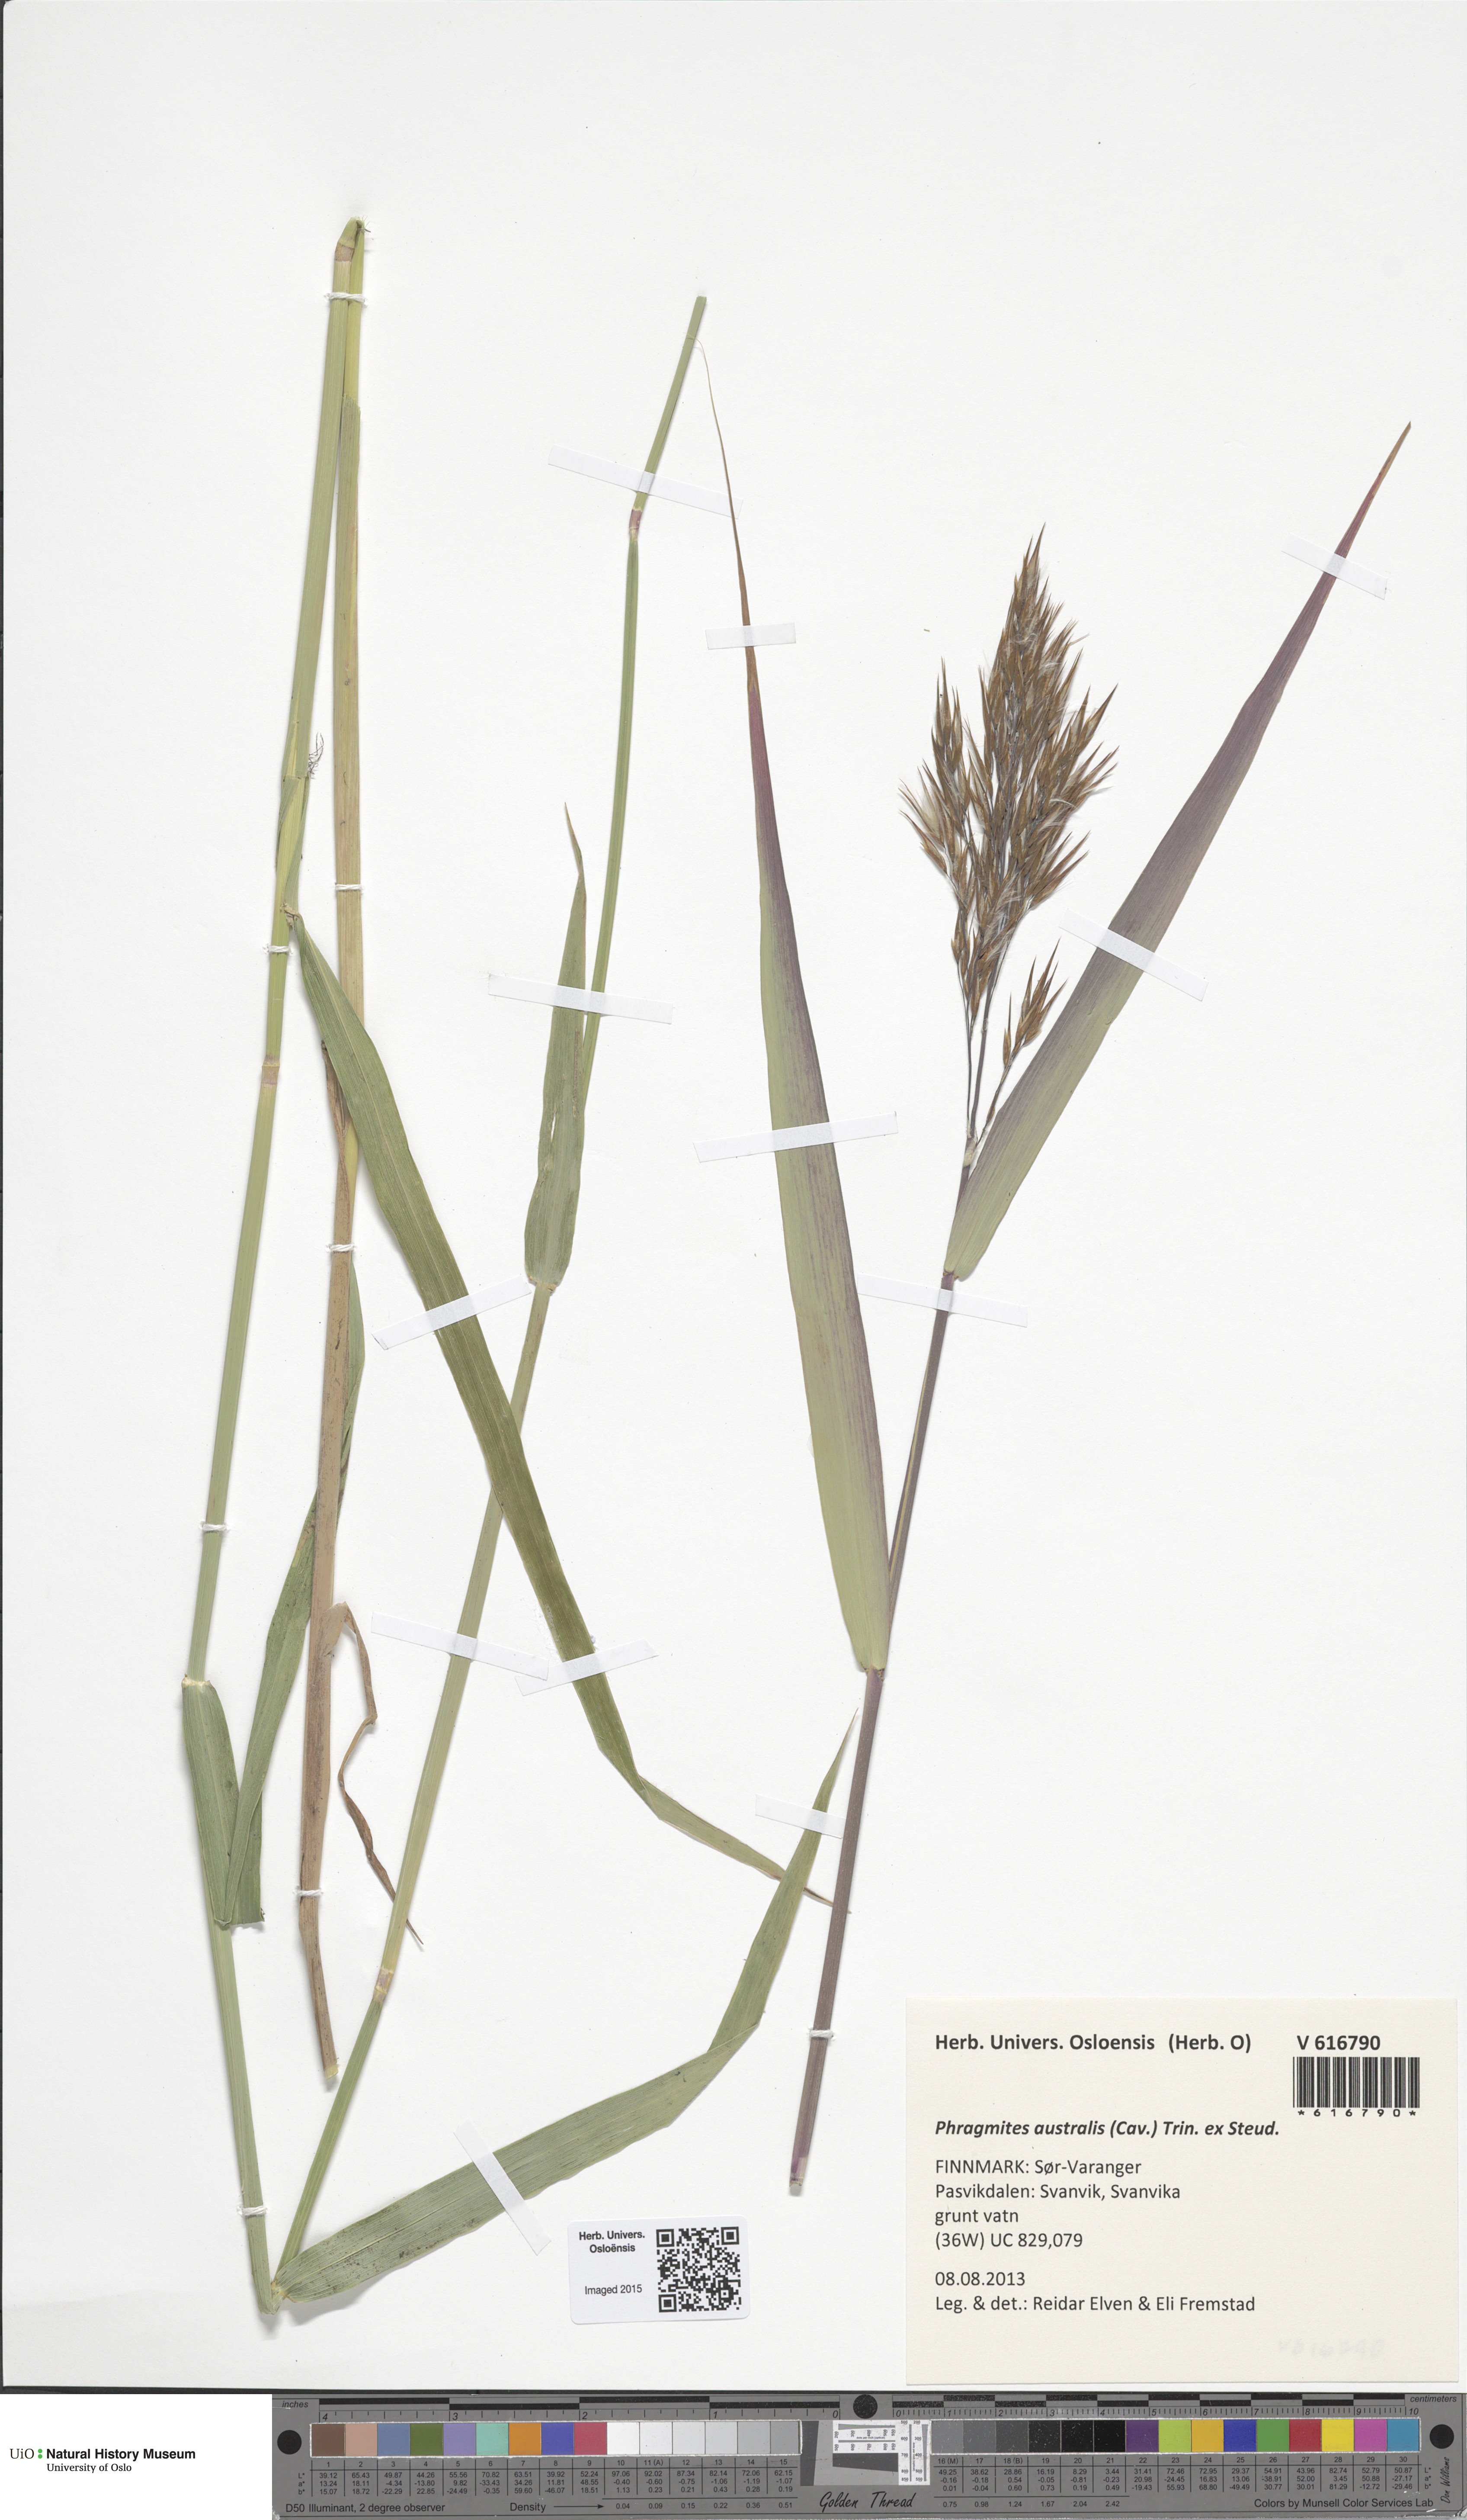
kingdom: Plantae
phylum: Tracheophyta
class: Liliopsida
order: Poales
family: Poaceae
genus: Phragmites
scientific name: Phragmites australis
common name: Common reed
